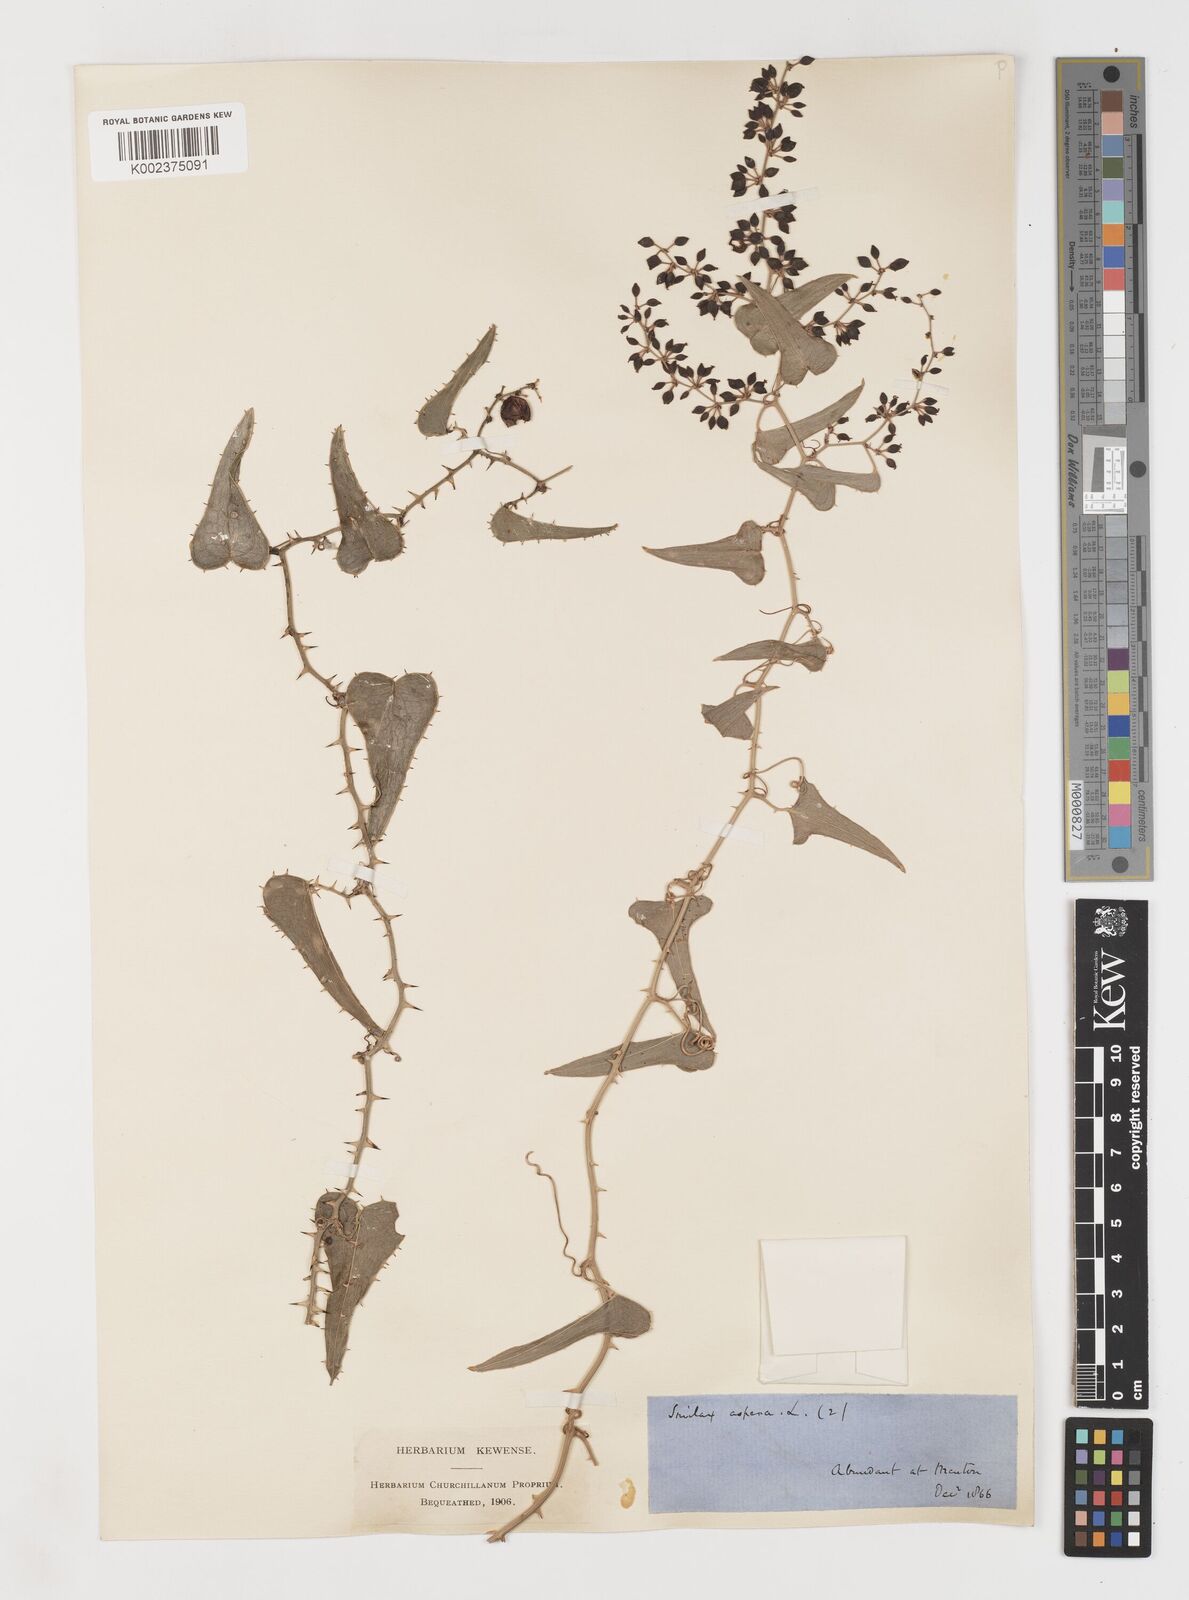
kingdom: Plantae
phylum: Tracheophyta
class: Liliopsida
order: Liliales
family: Smilacaceae
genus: Smilax
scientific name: Smilax aspera
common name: Common smilax
